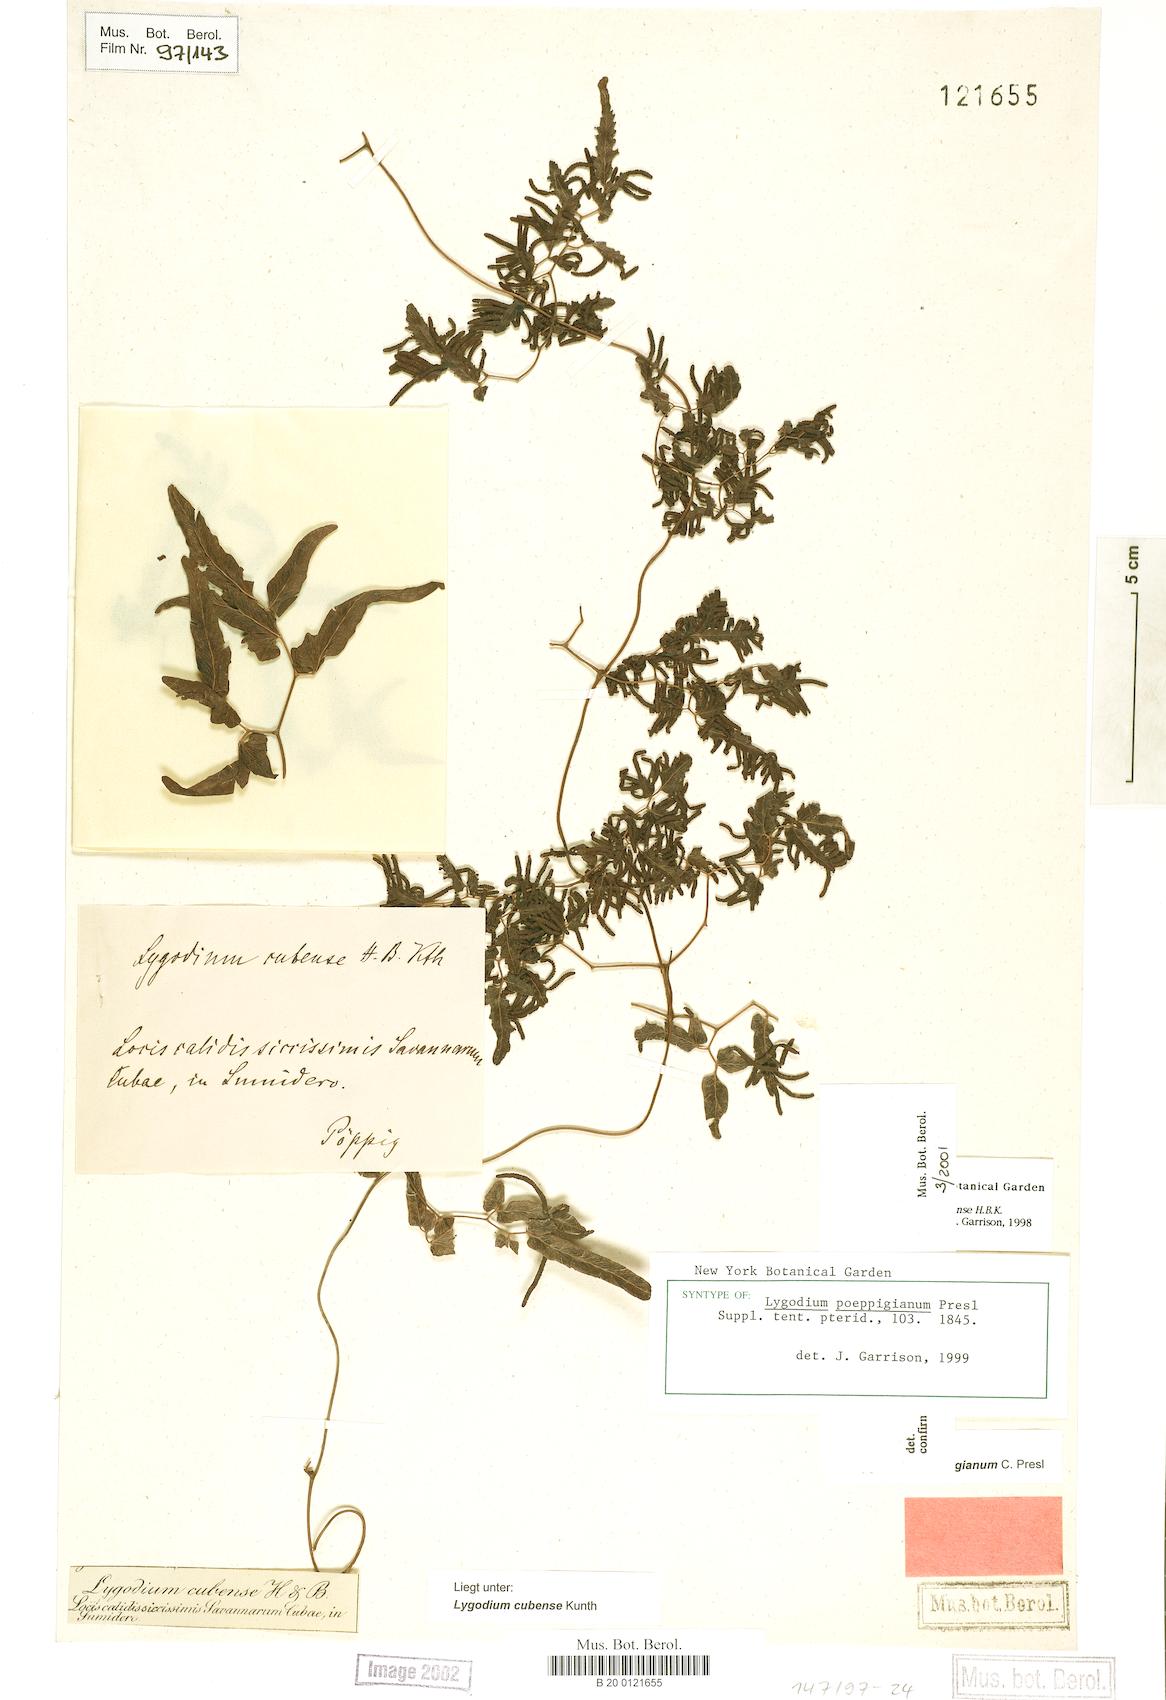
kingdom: Plantae
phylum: Tracheophyta
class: Polypodiopsida
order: Schizaeales
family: Lygodiaceae
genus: Lygodium
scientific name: Lygodium cubense
